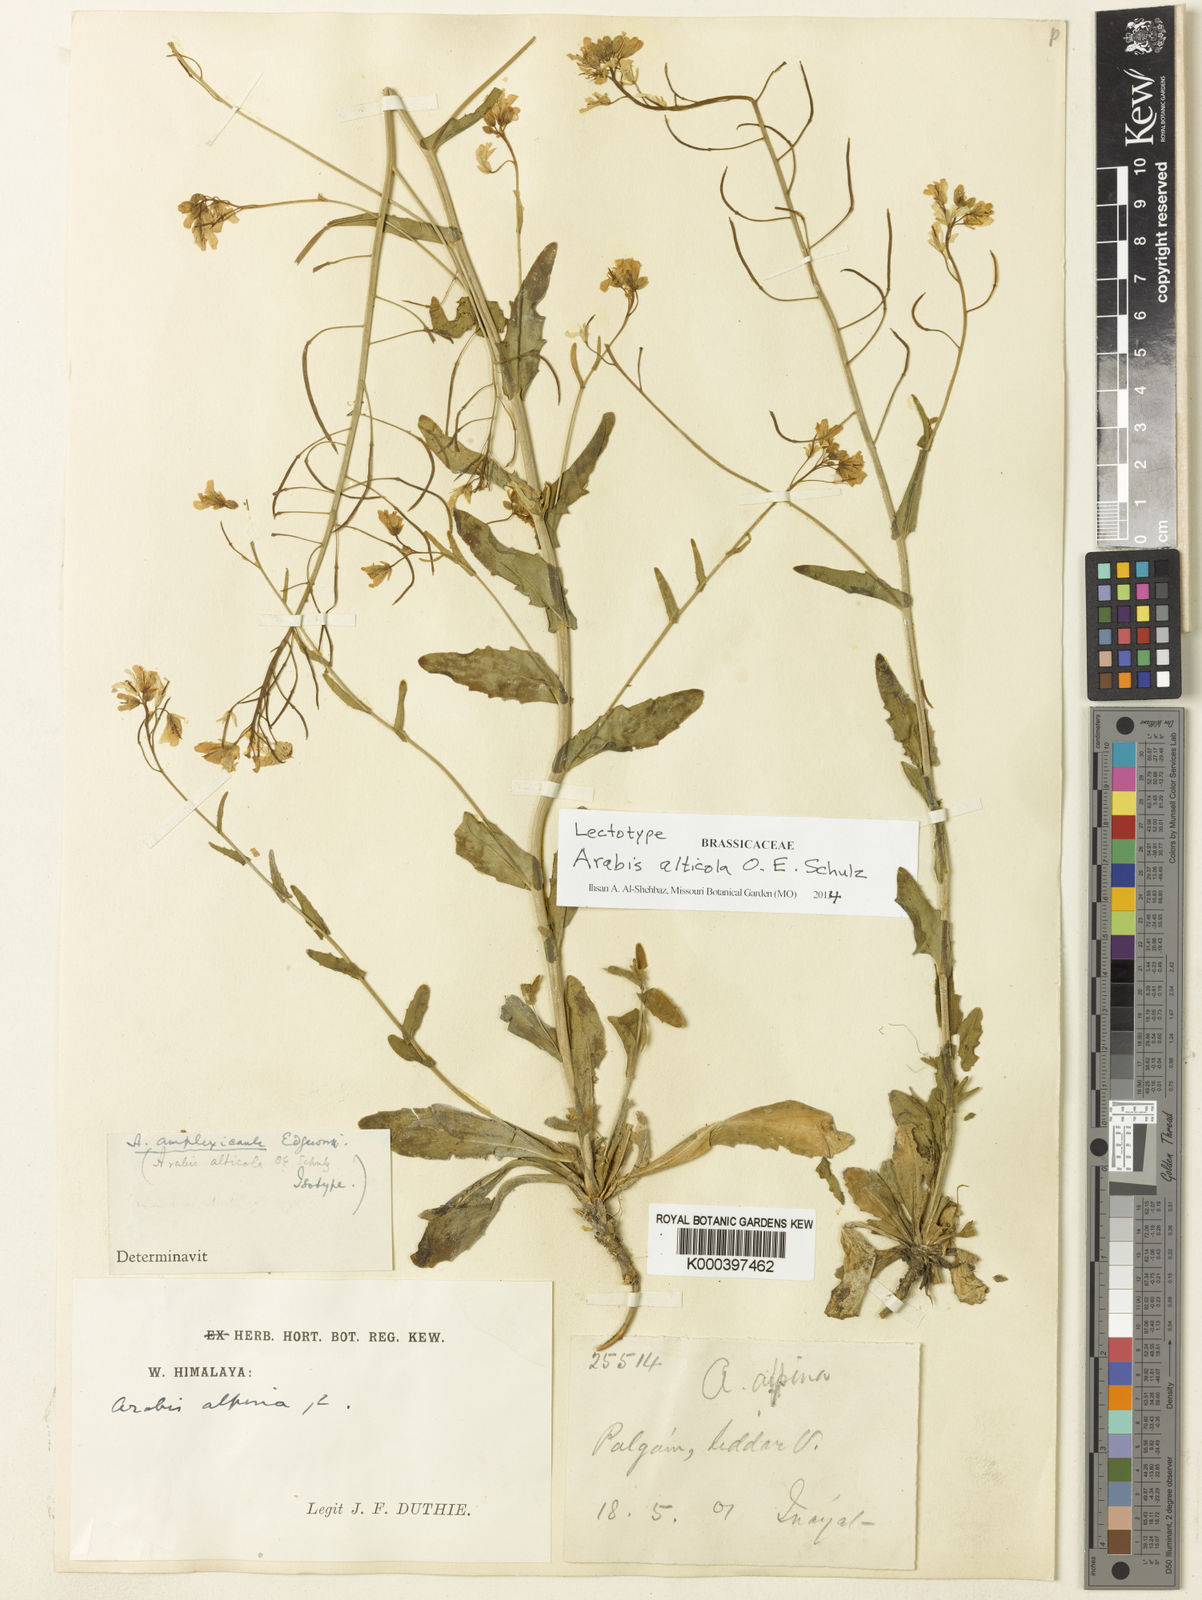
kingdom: Plantae
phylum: Tracheophyta
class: Magnoliopsida
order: Brassicales
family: Brassicaceae
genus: Arabis
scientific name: Arabis amplexicaulis
